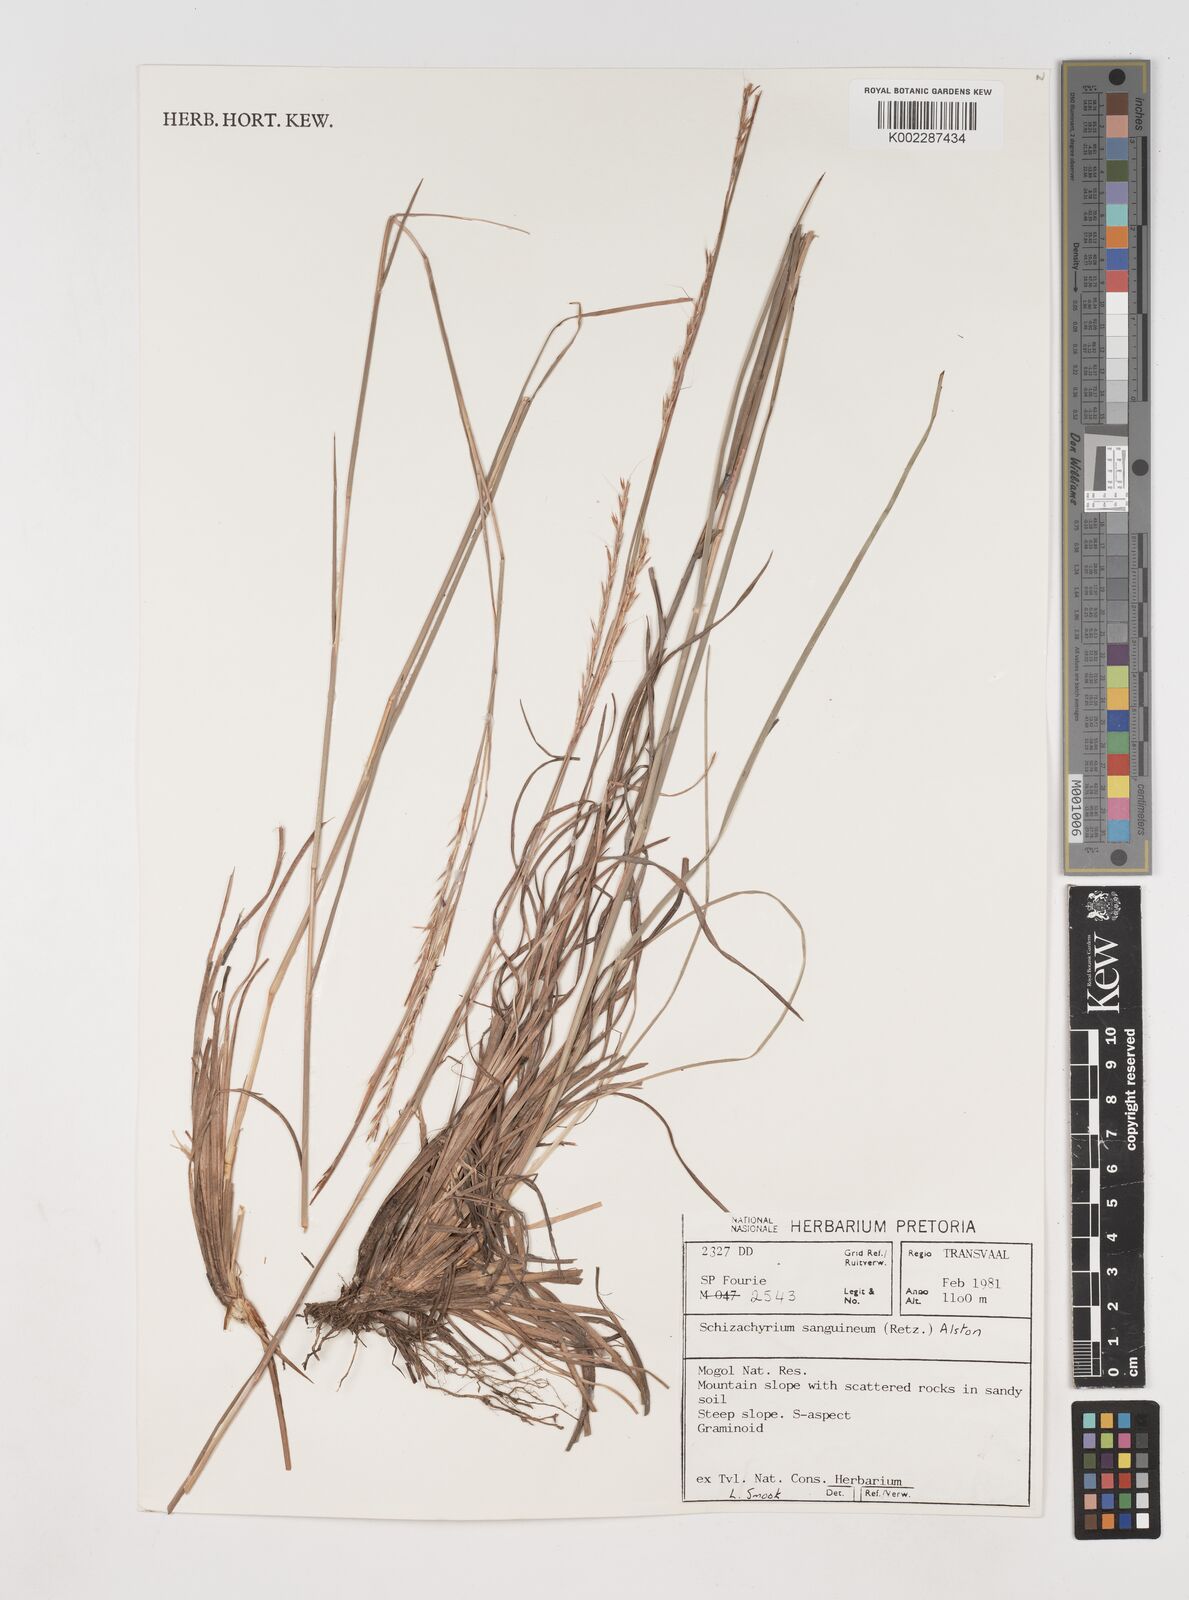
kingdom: Plantae
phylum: Tracheophyta
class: Liliopsida
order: Poales
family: Poaceae
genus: Schizachyrium
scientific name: Schizachyrium sanguineum
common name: Crimson bluestem
